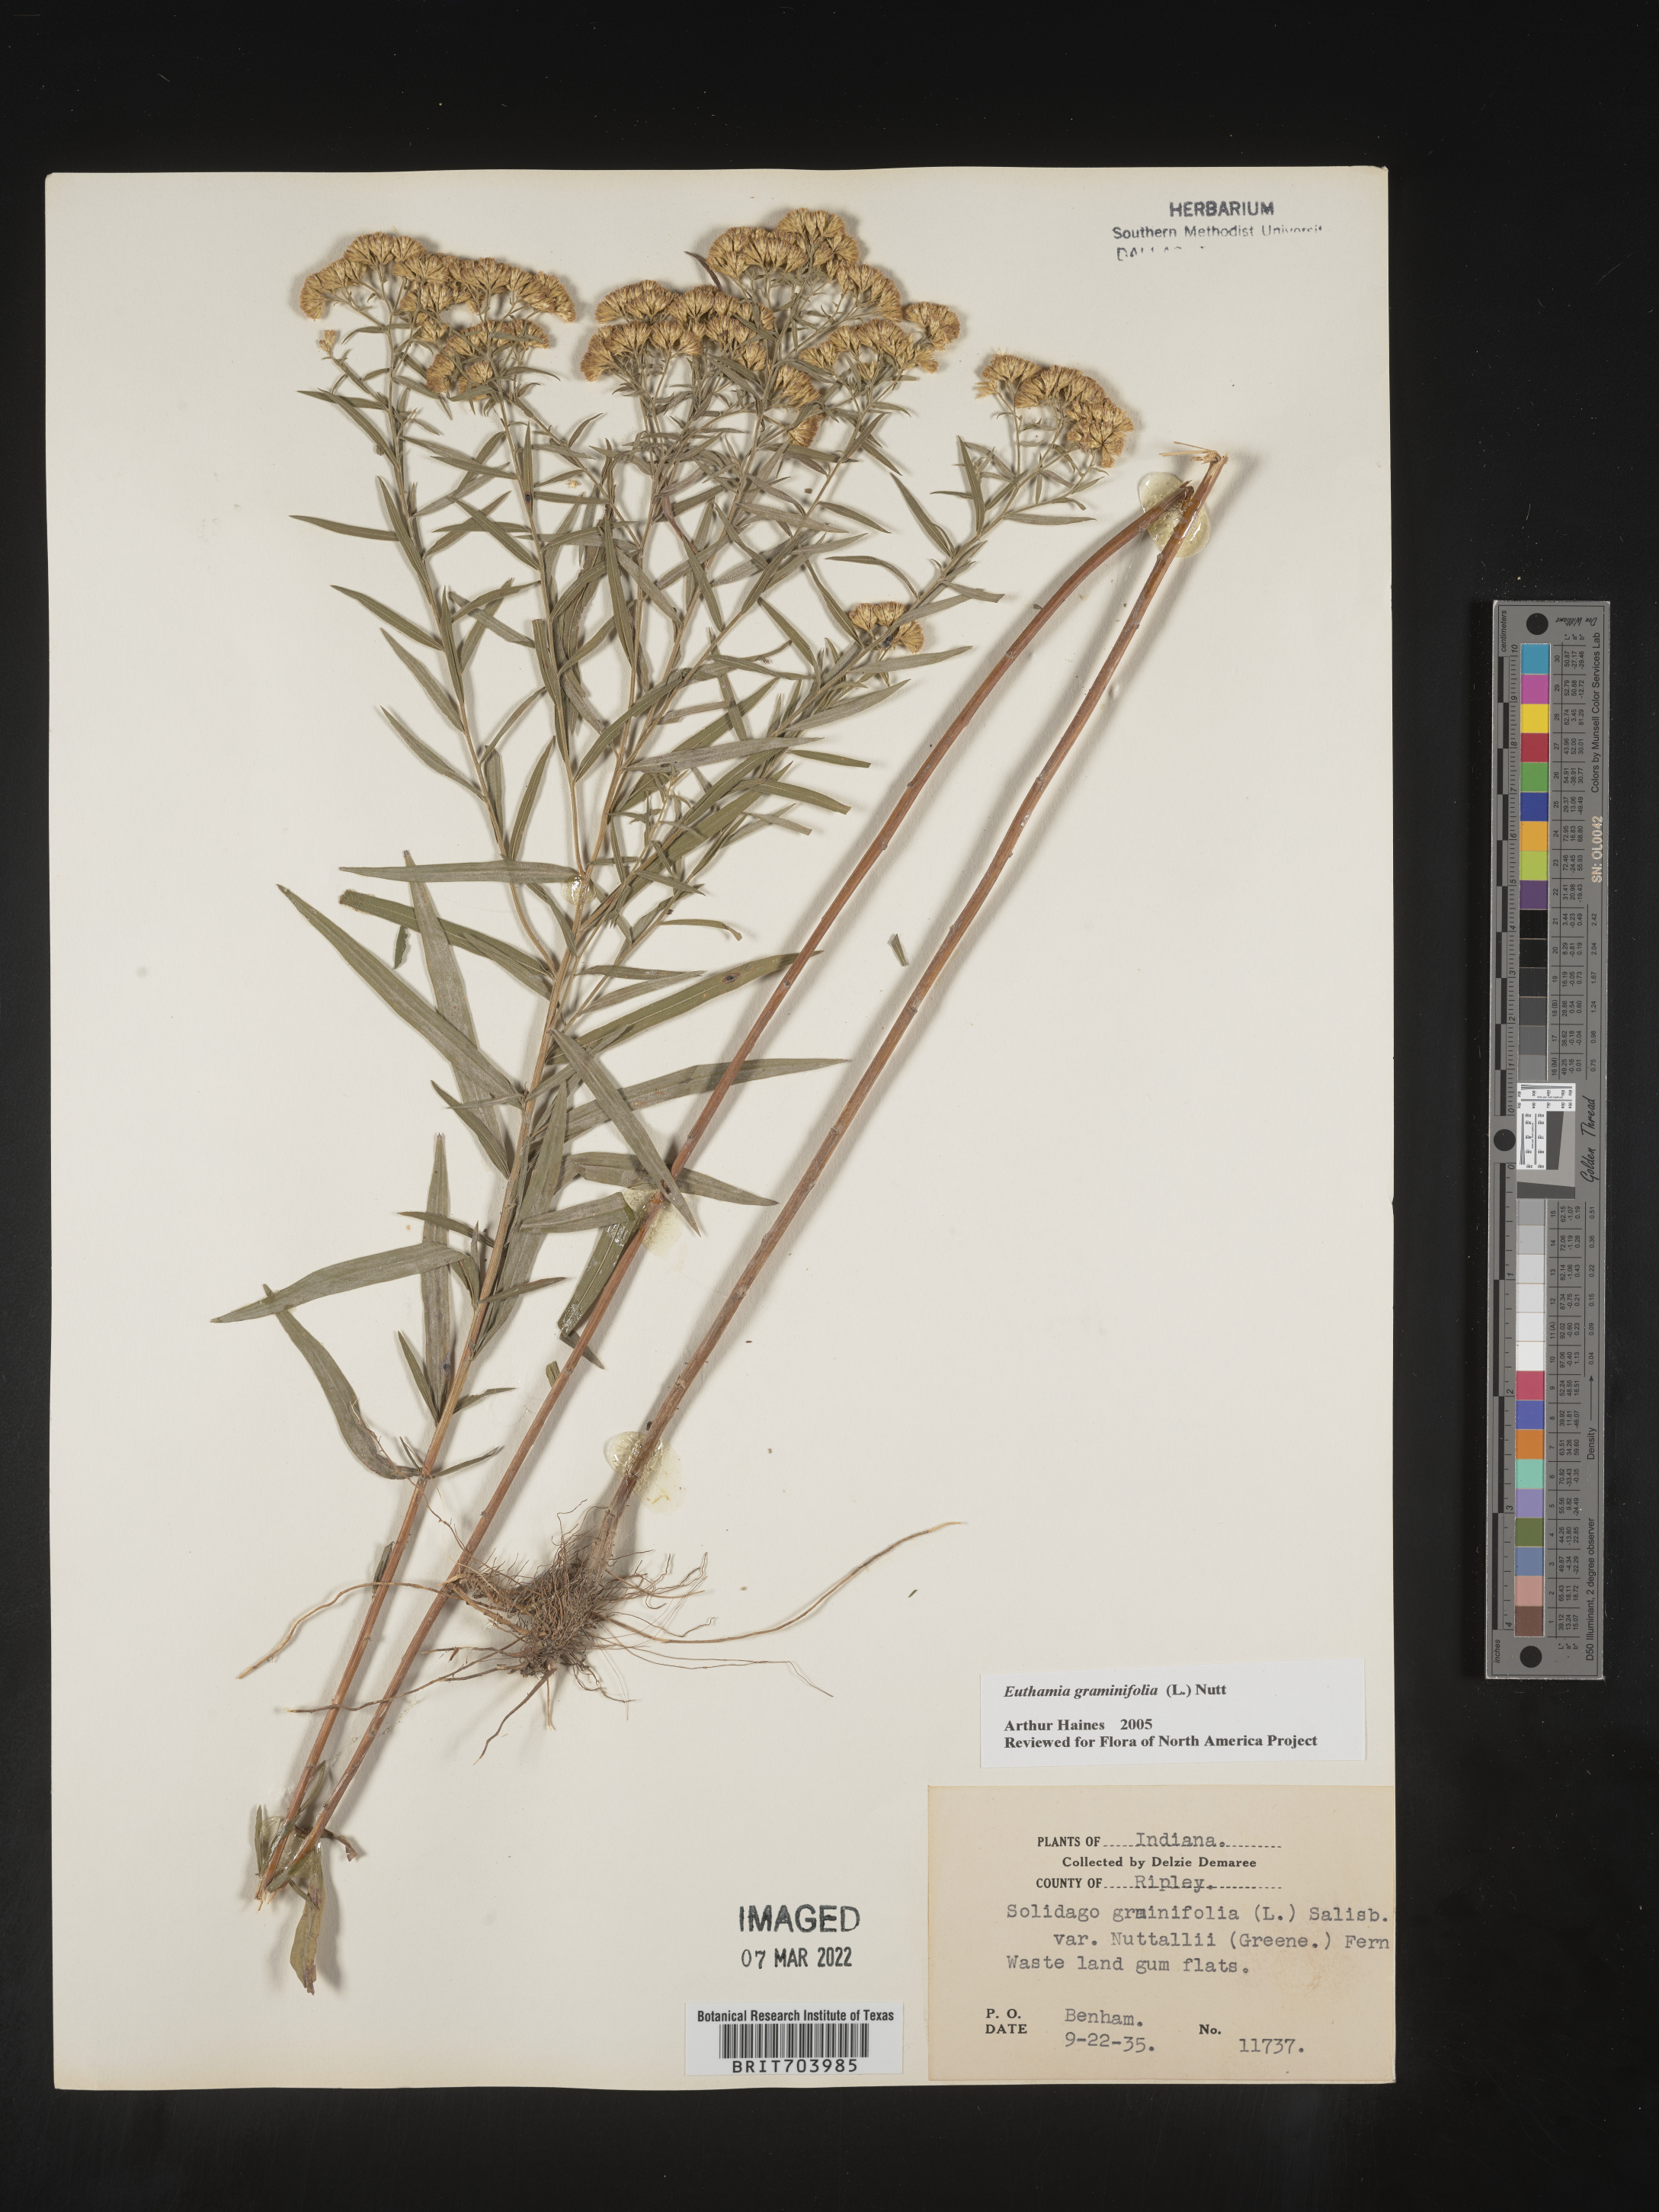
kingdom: Plantae
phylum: Tracheophyta
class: Magnoliopsida
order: Asterales
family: Asteraceae
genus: Euthamia
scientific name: Euthamia graminifolia
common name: Common goldentop
